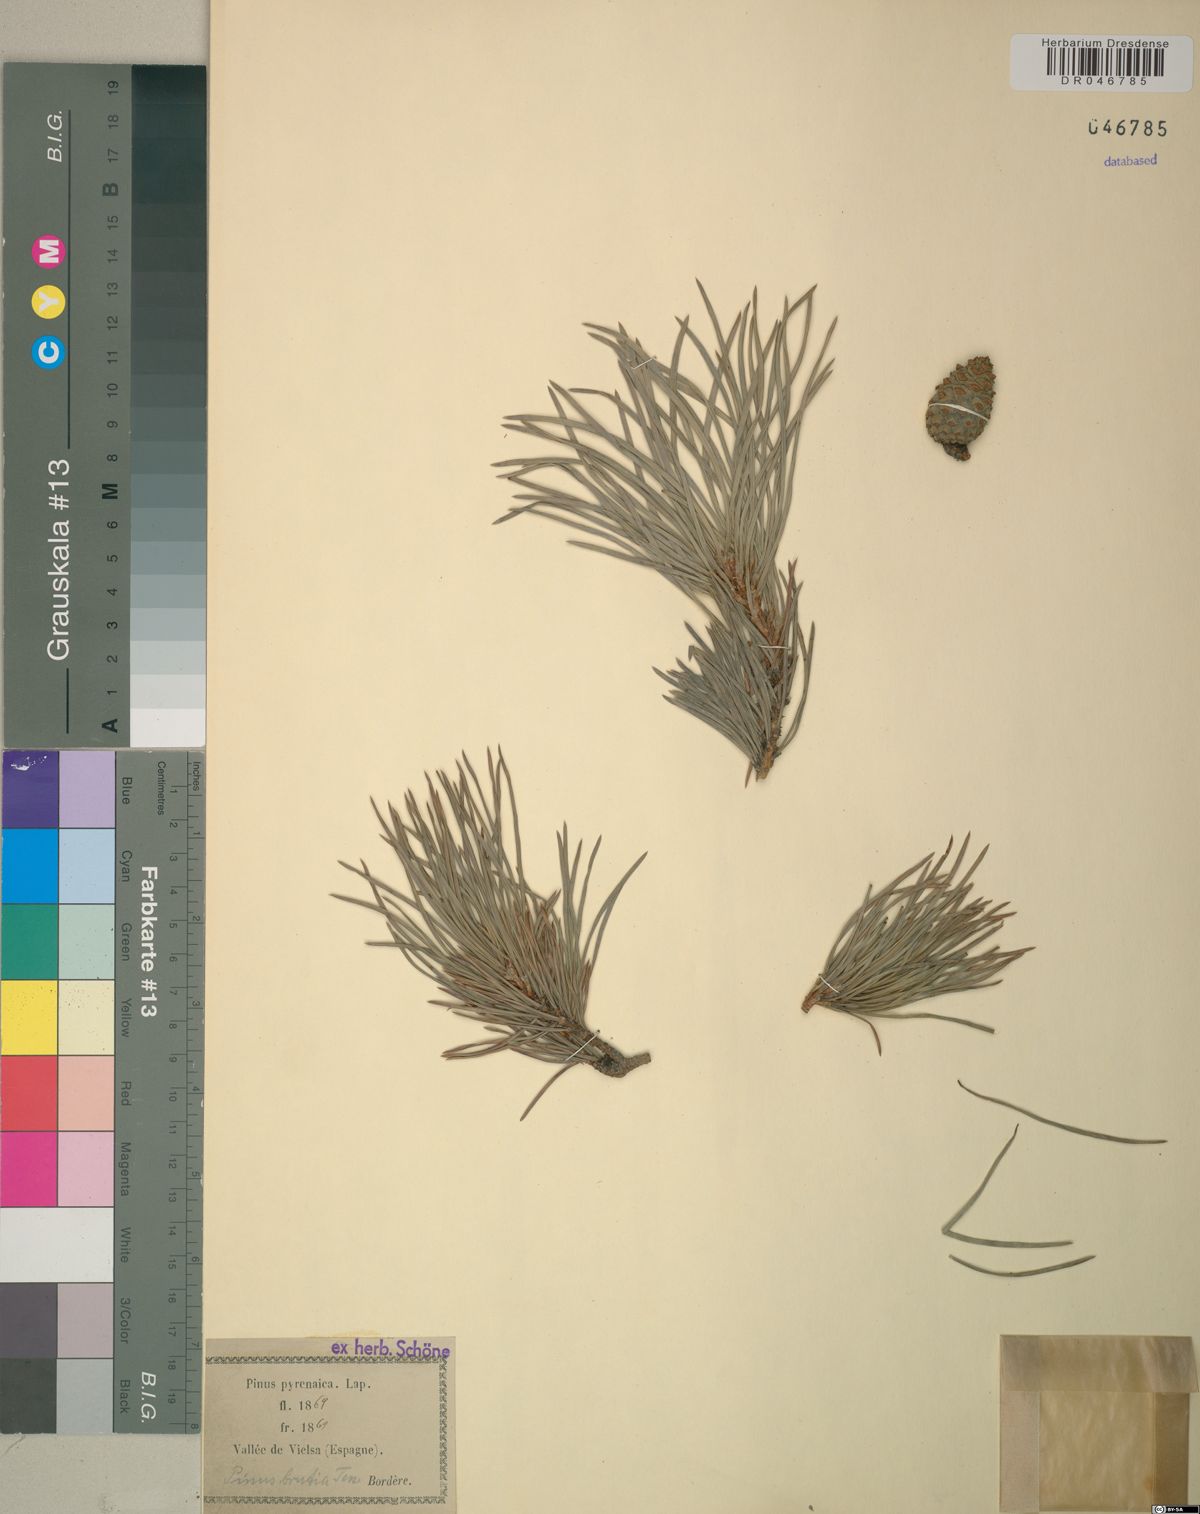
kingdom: Plantae
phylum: Tracheophyta
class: Pinopsida
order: Pinales
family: Pinaceae
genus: Pinus
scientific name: Pinus brutia
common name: Turkish pine
